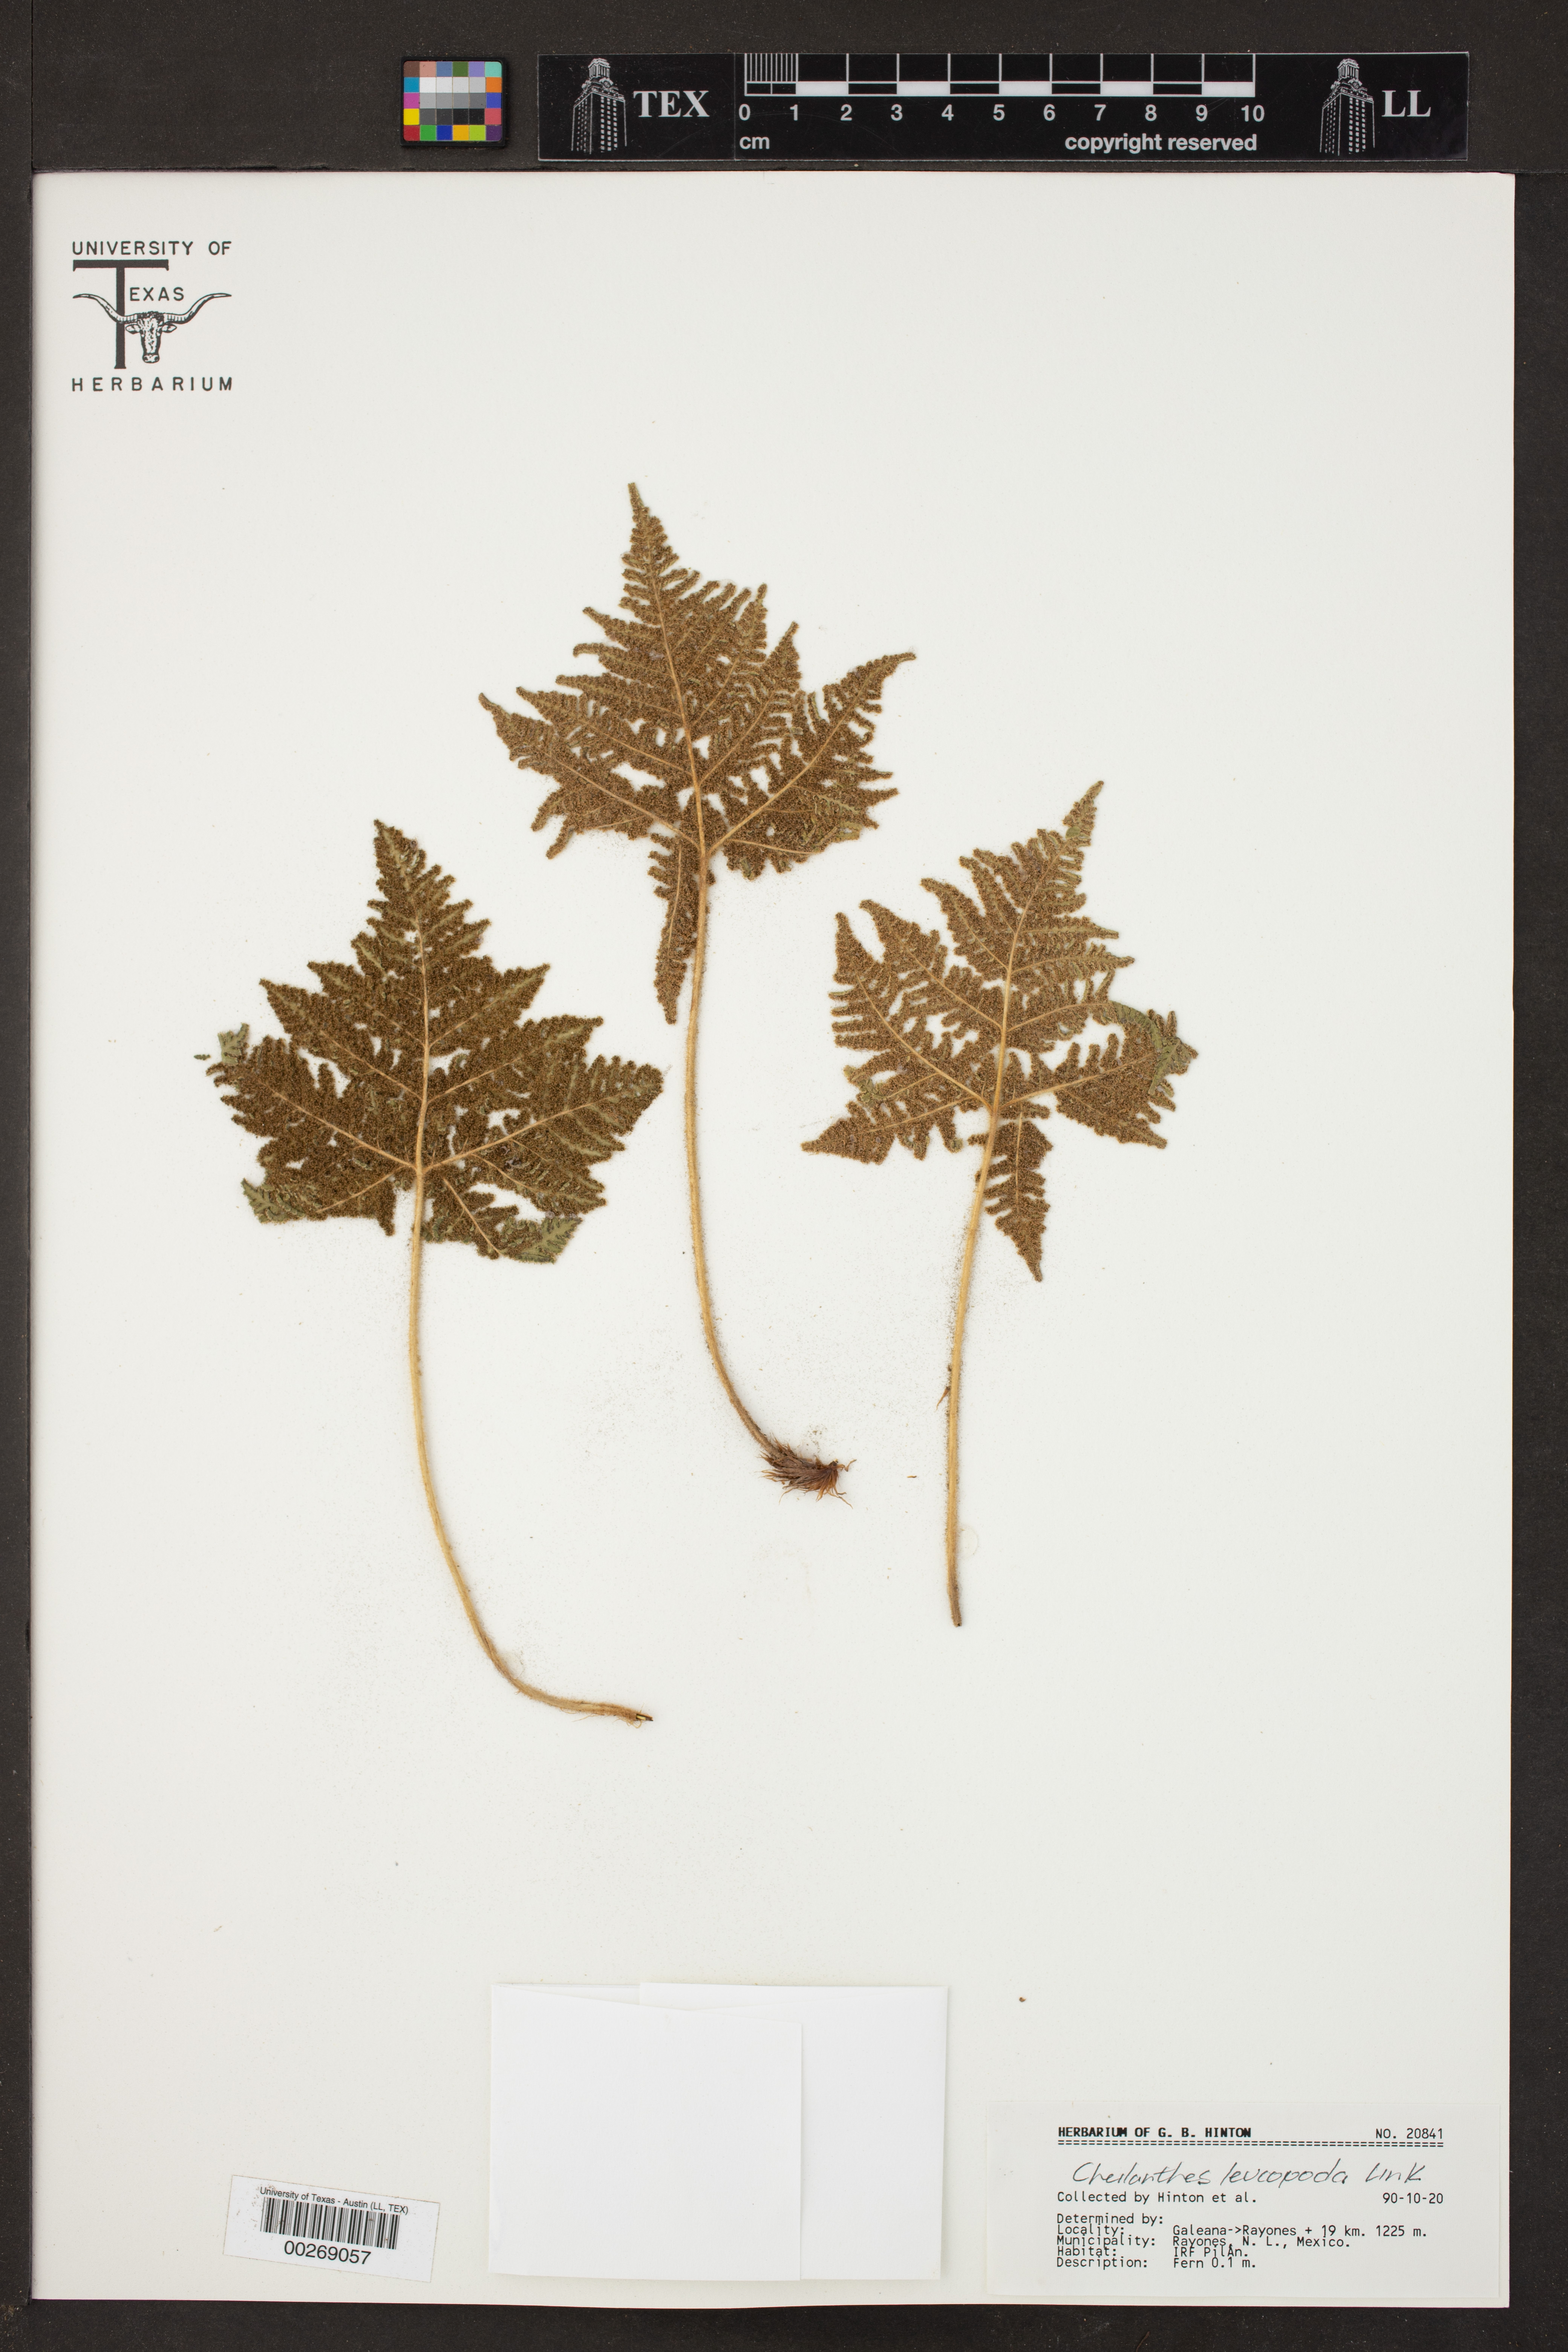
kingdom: Plantae
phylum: Tracheophyta
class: Polypodiopsida
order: Polypodiales
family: Pteridaceae
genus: Cheilanthes
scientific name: Cheilanthes leucopoda
